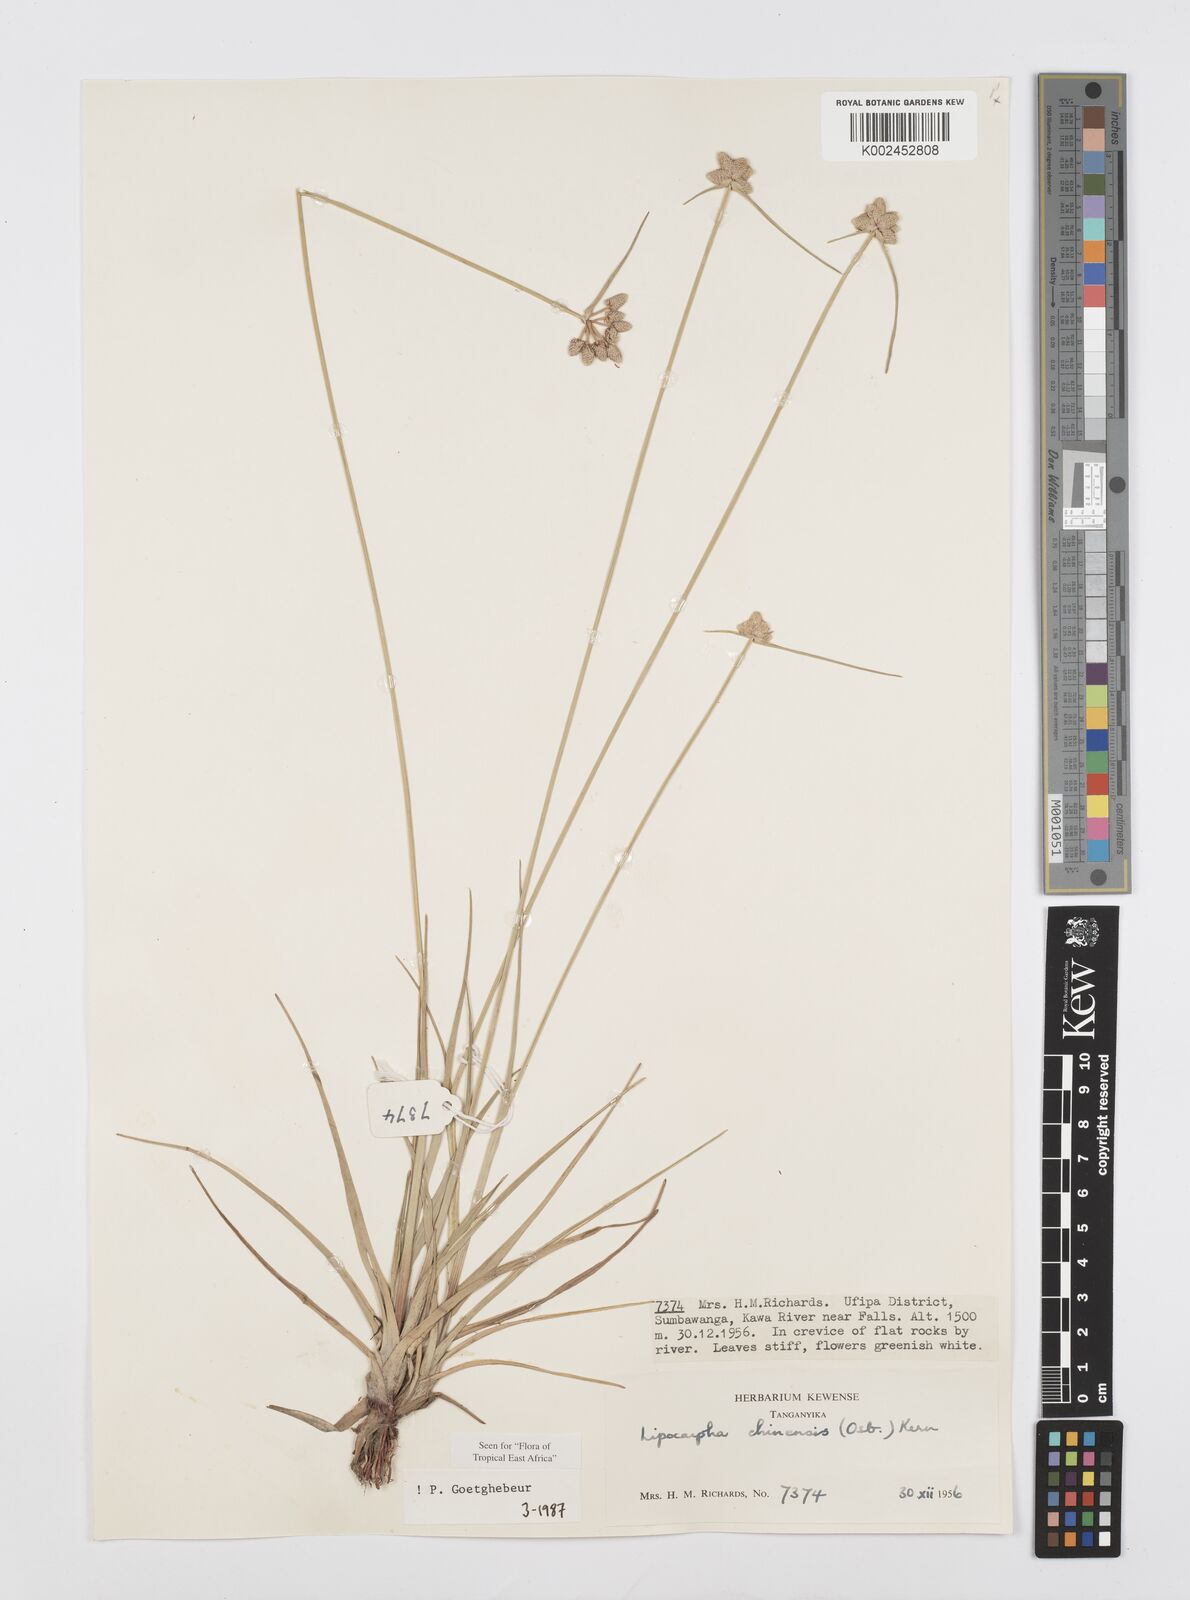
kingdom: Plantae
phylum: Tracheophyta
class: Liliopsida
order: Poales
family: Cyperaceae
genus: Cyperus
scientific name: Cyperus albescens
